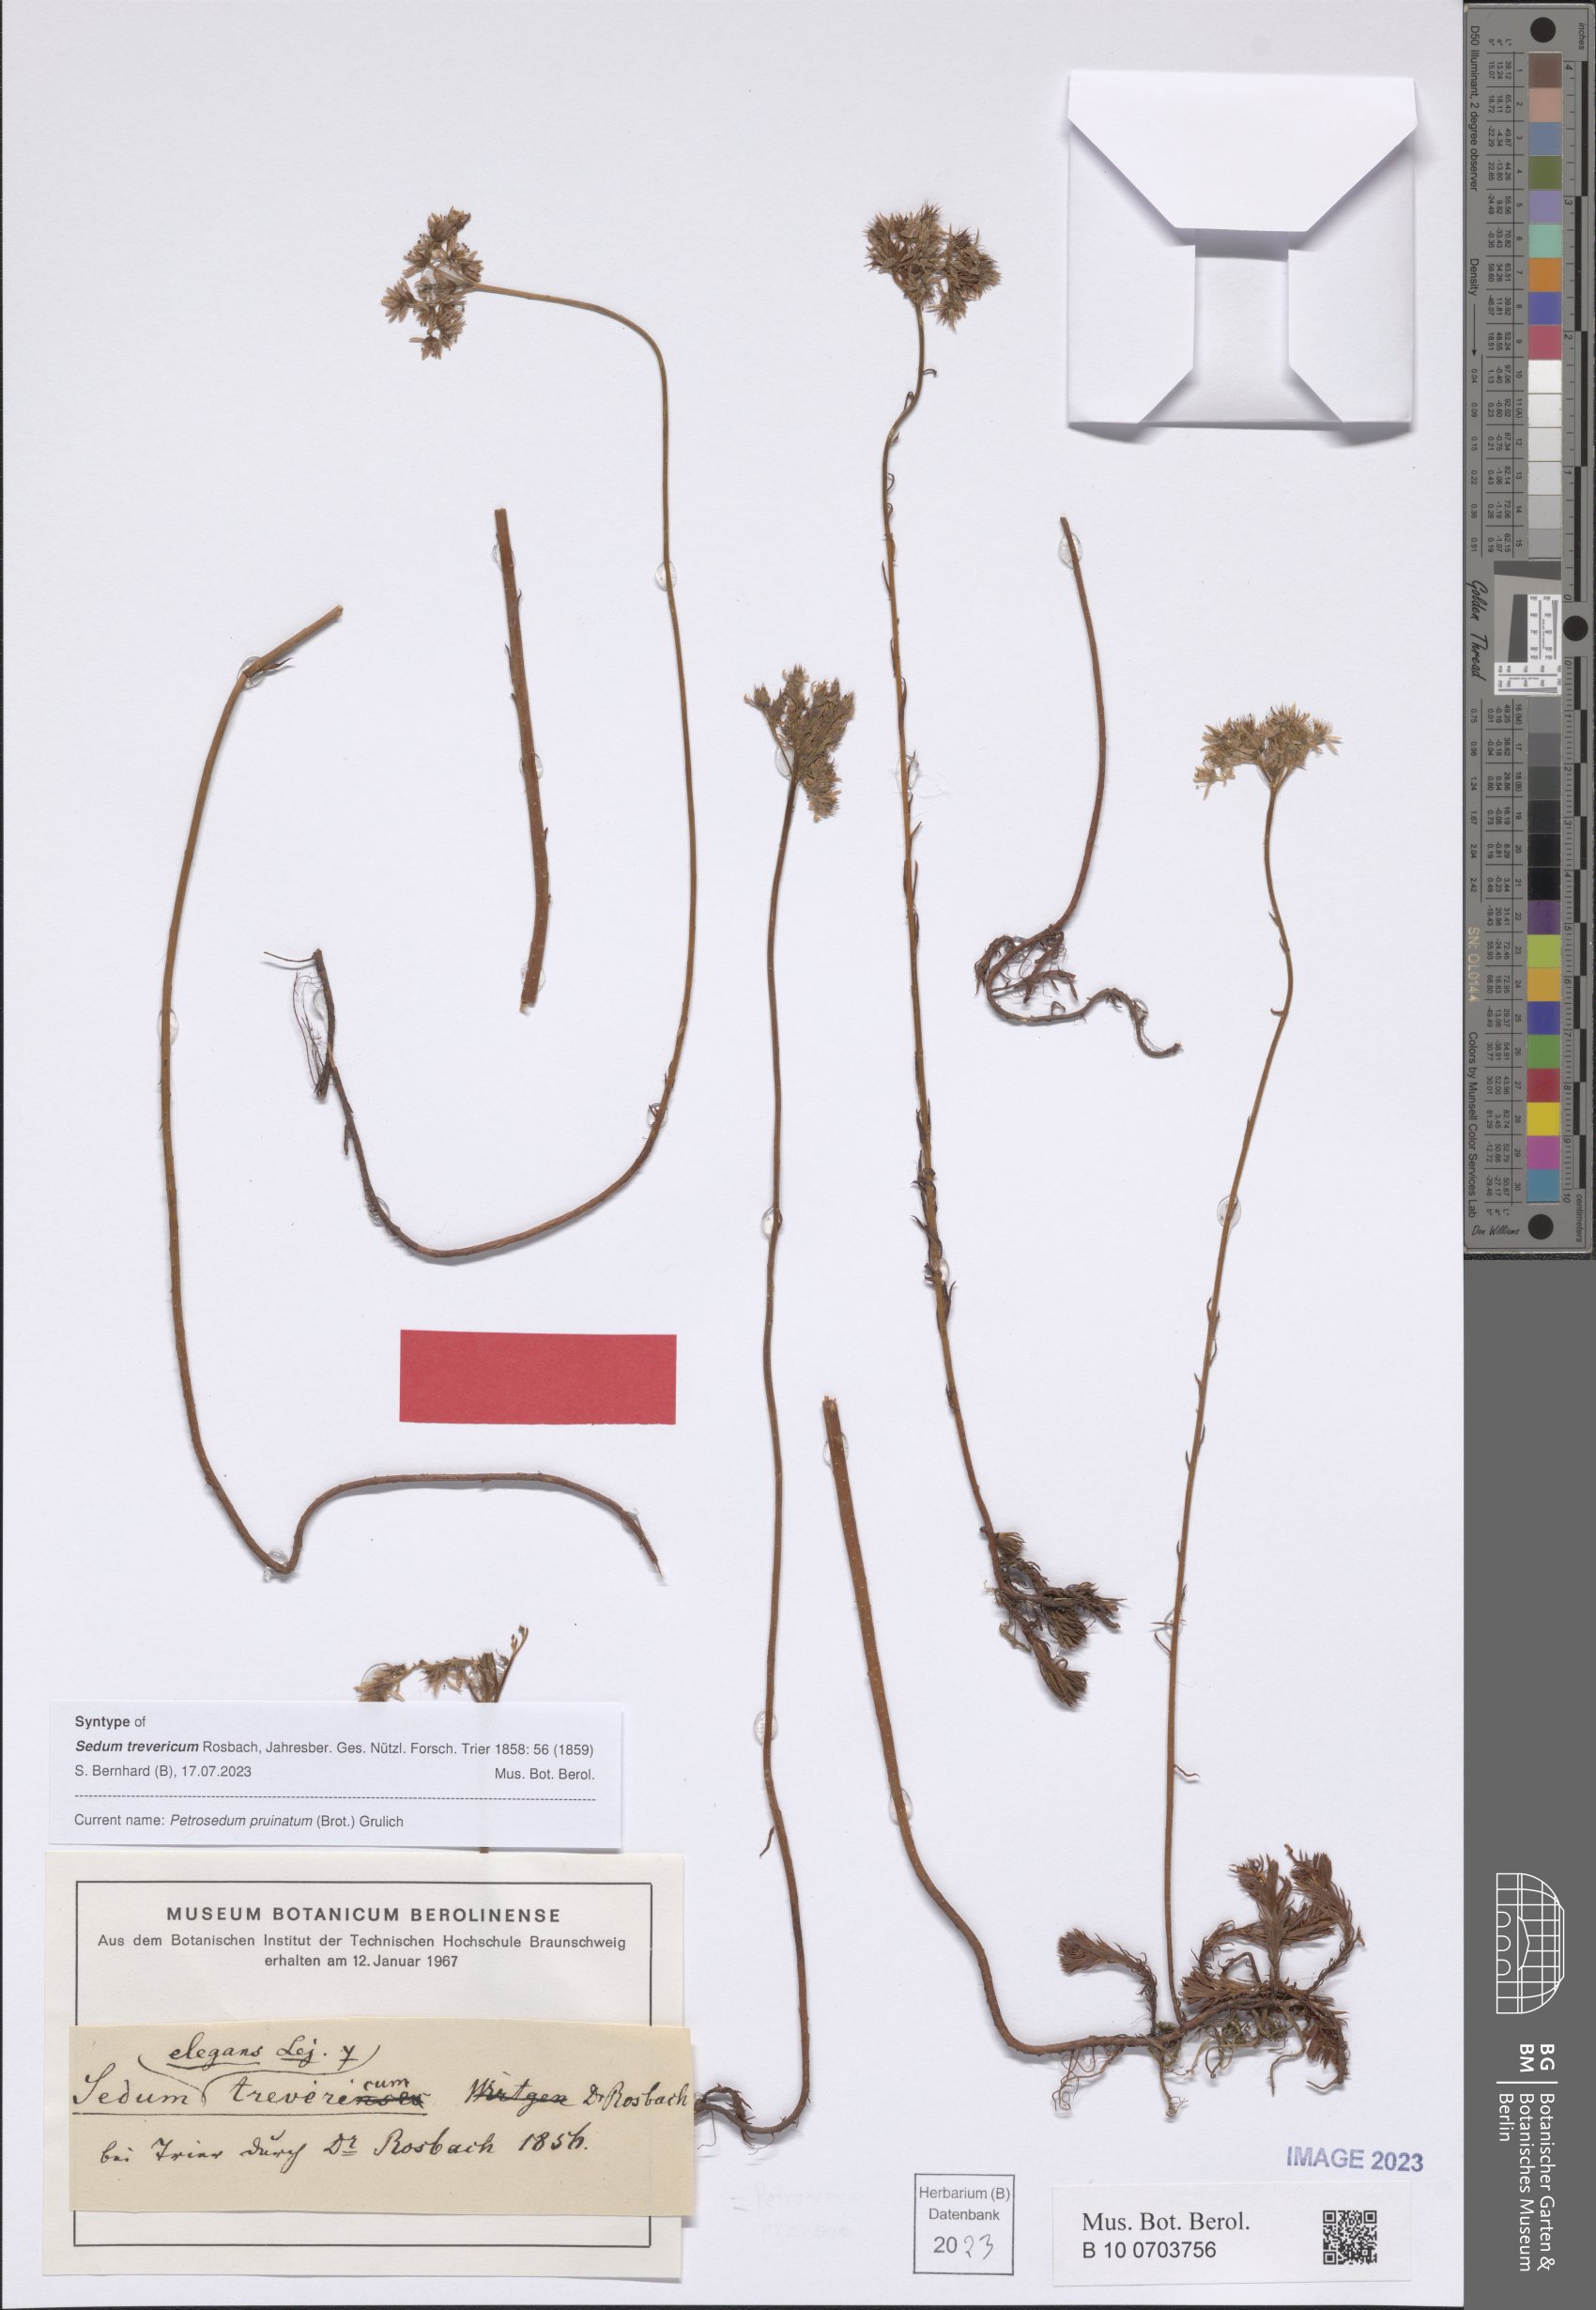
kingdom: Plantae
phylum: Tracheophyta
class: Magnoliopsida
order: Saxifragales
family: Crassulaceae
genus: Petrosedum
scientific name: Petrosedum pruinatum
